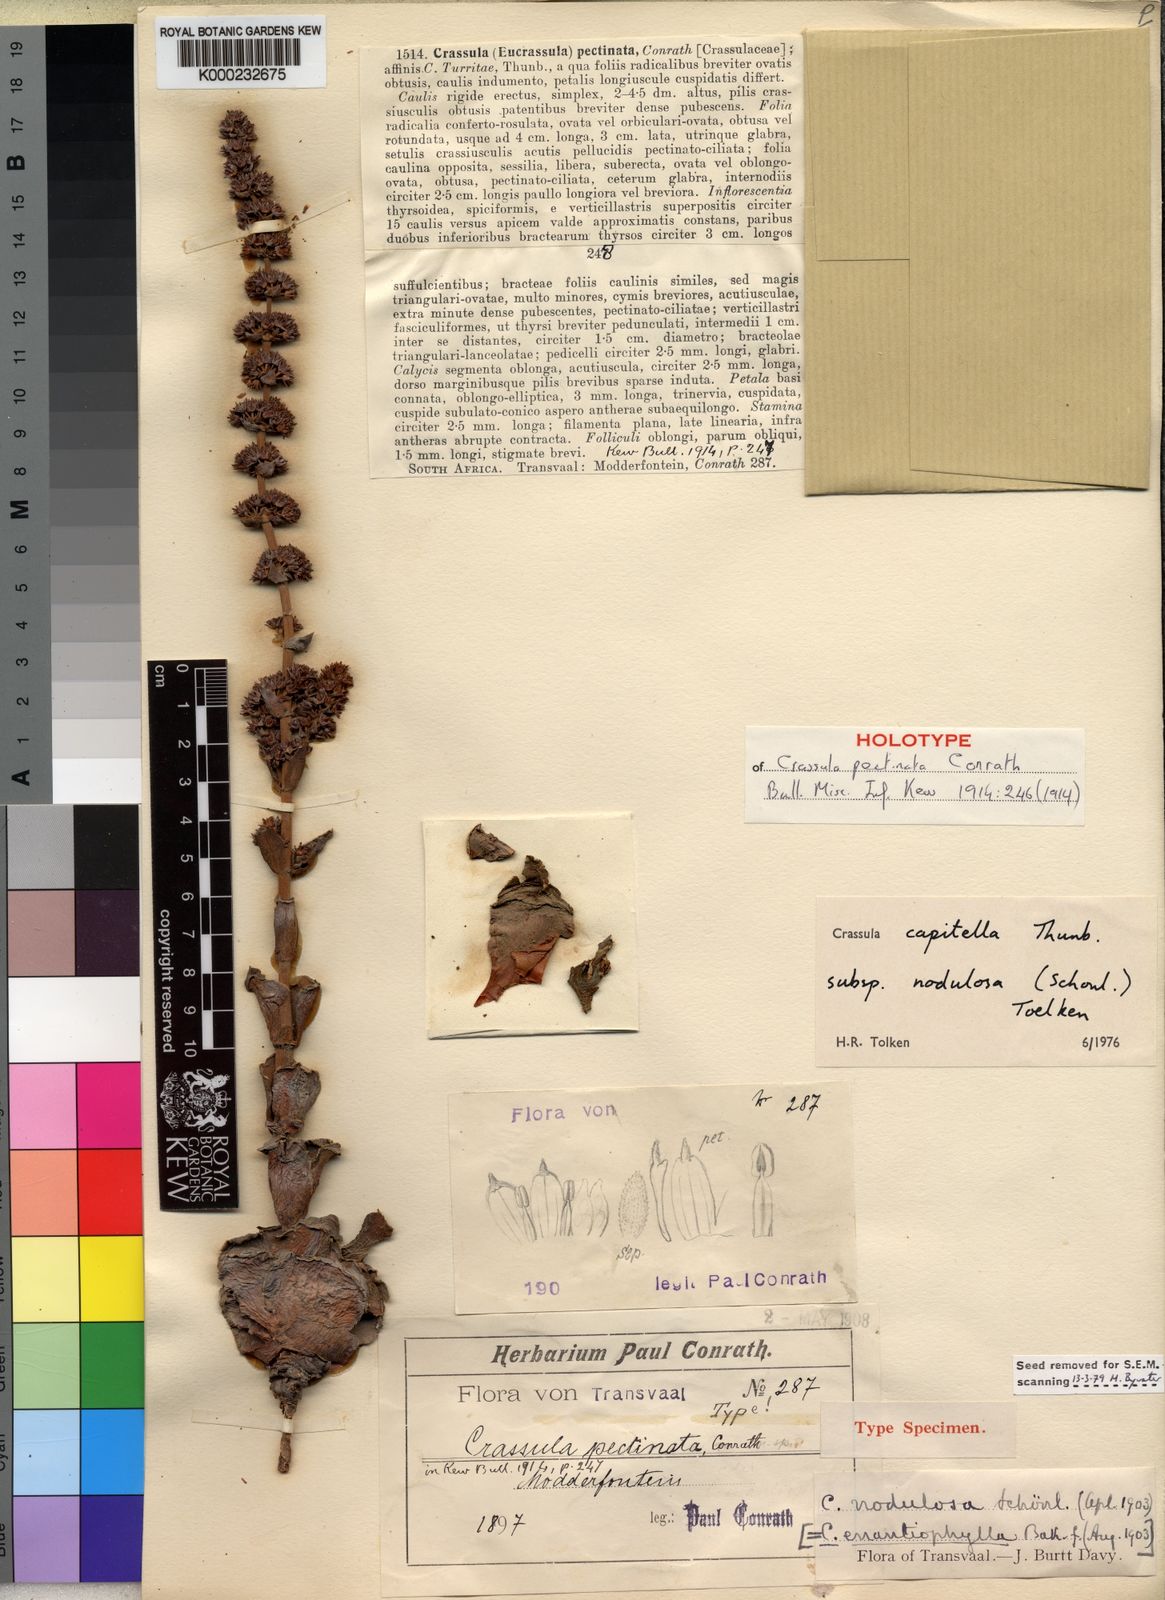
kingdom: Plantae
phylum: Tracheophyta
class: Magnoliopsida
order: Saxifragales
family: Crassulaceae
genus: Crassula
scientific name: Crassula nodulosa
